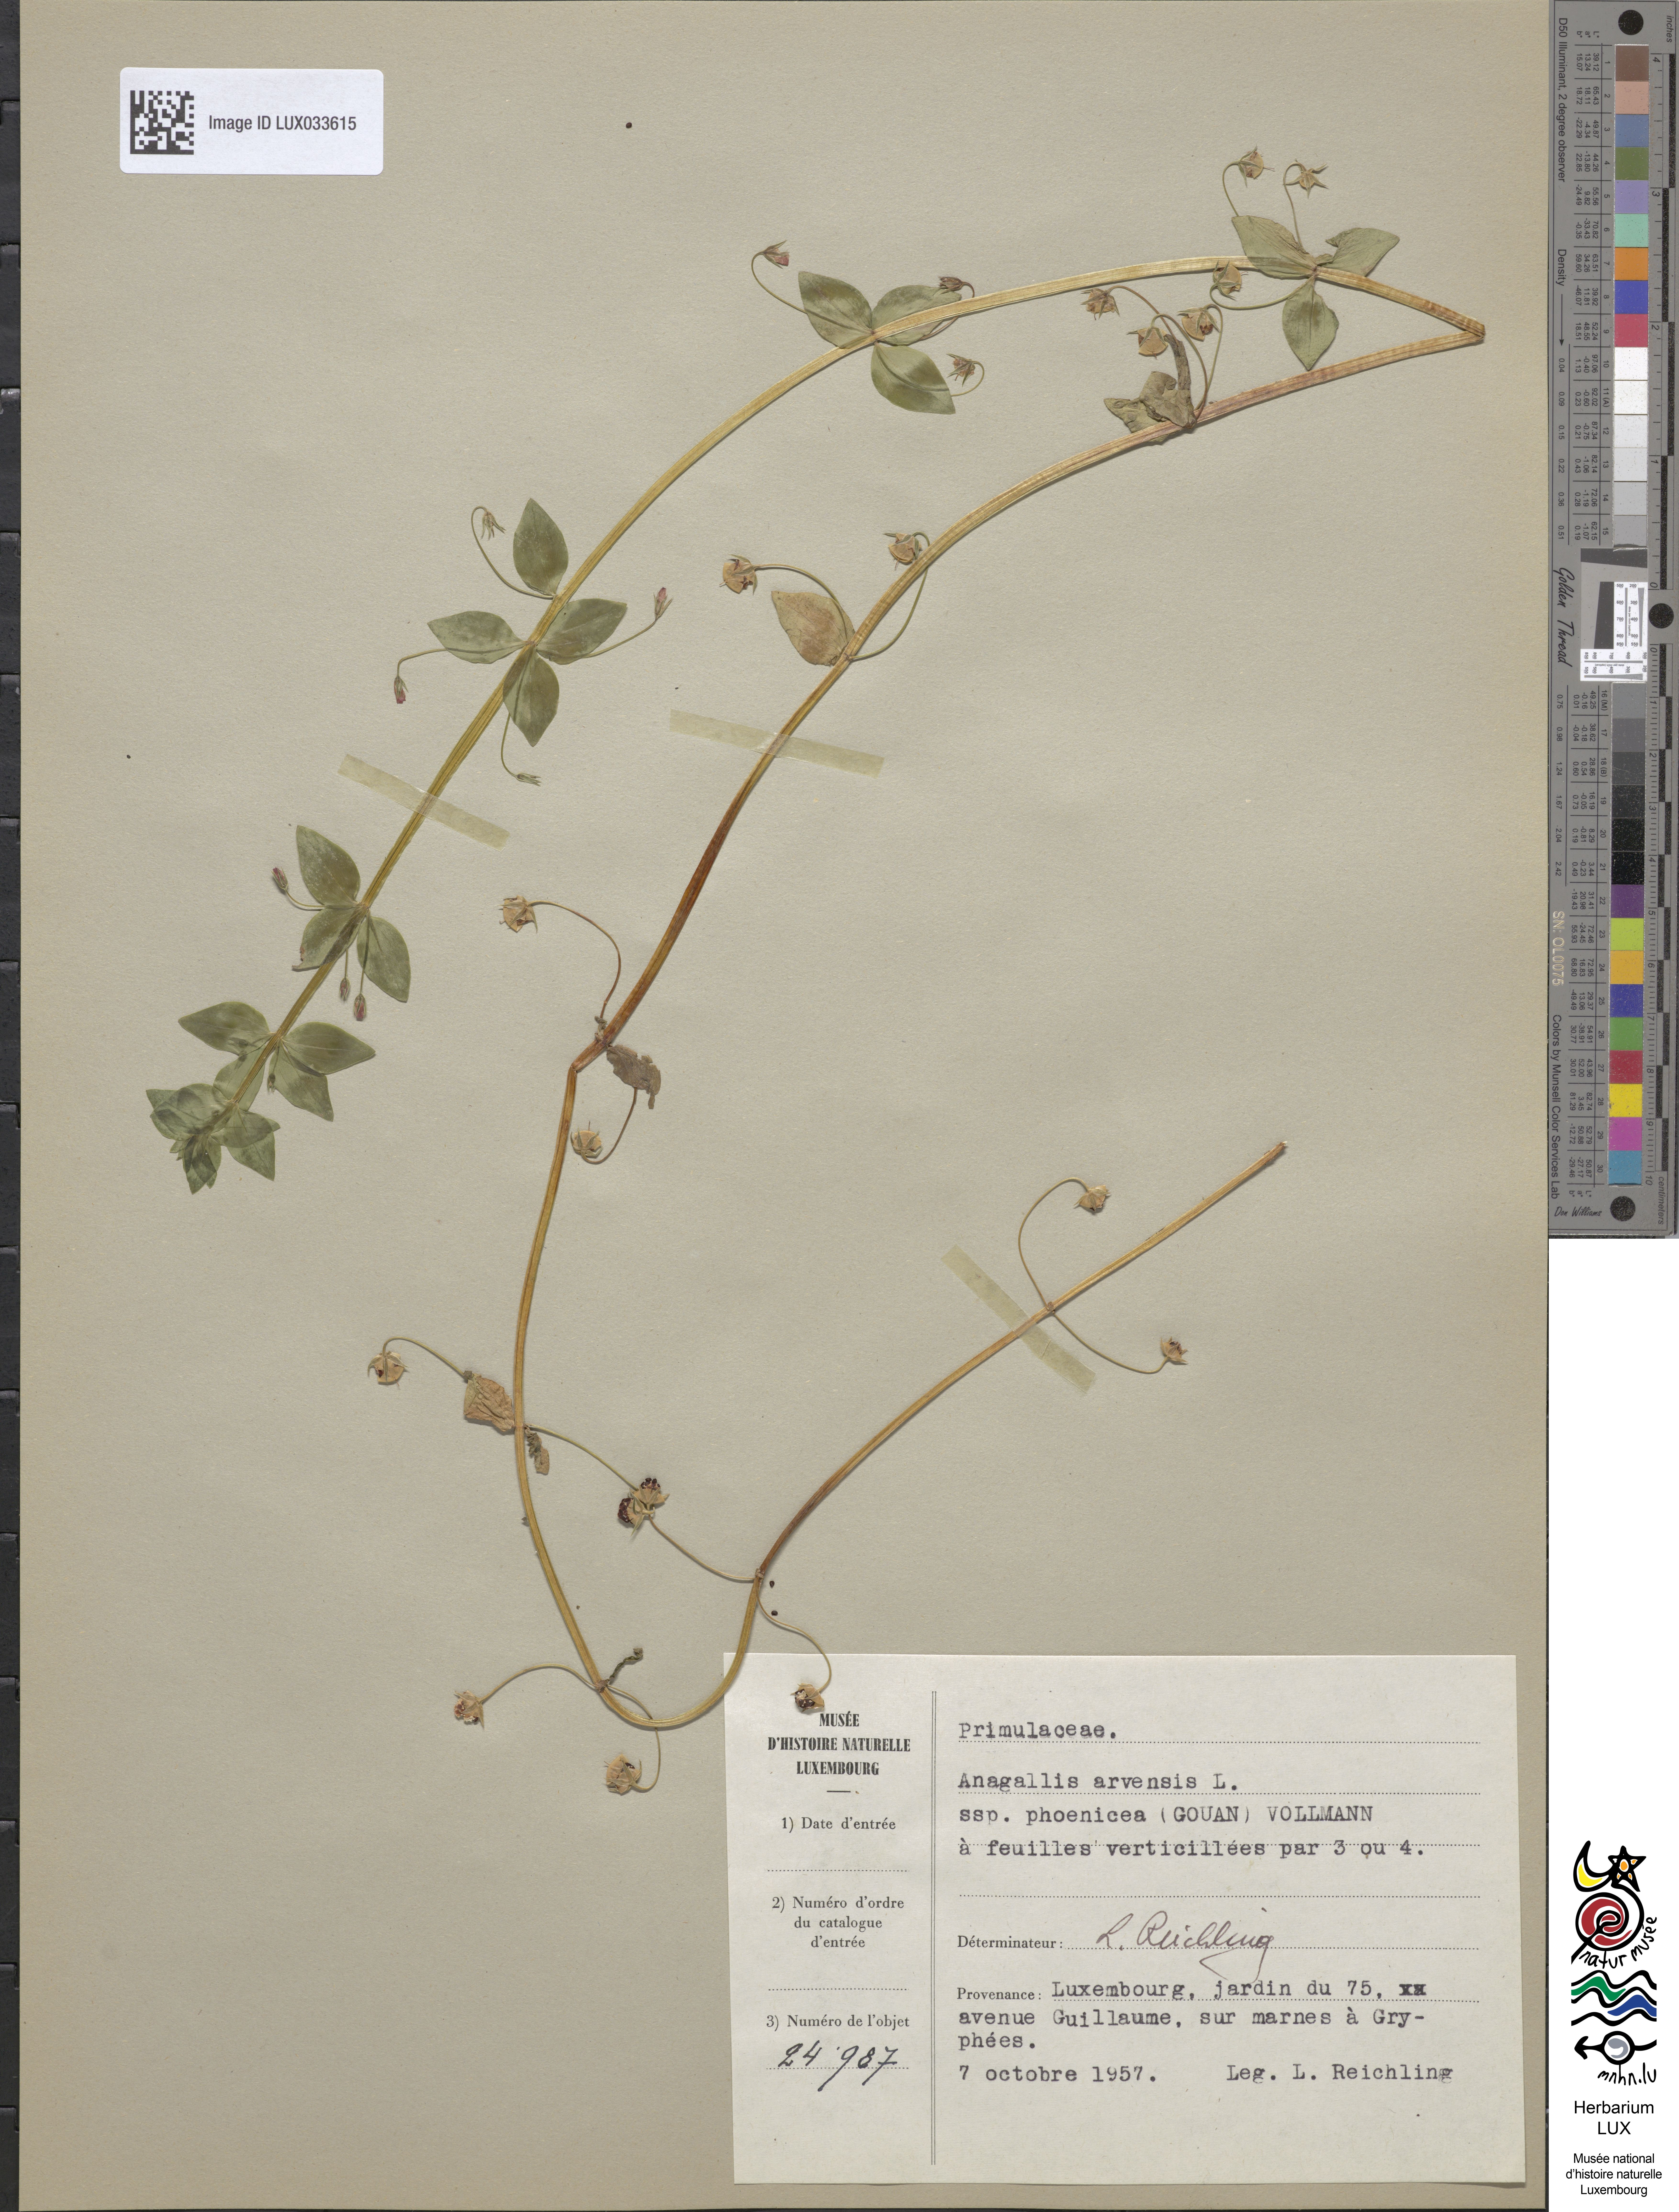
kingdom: Plantae
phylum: Tracheophyta
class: Magnoliopsida
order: Ericales
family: Primulaceae
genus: Lysimachia
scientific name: Lysimachia arvensis
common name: Scarlet pimpernel
